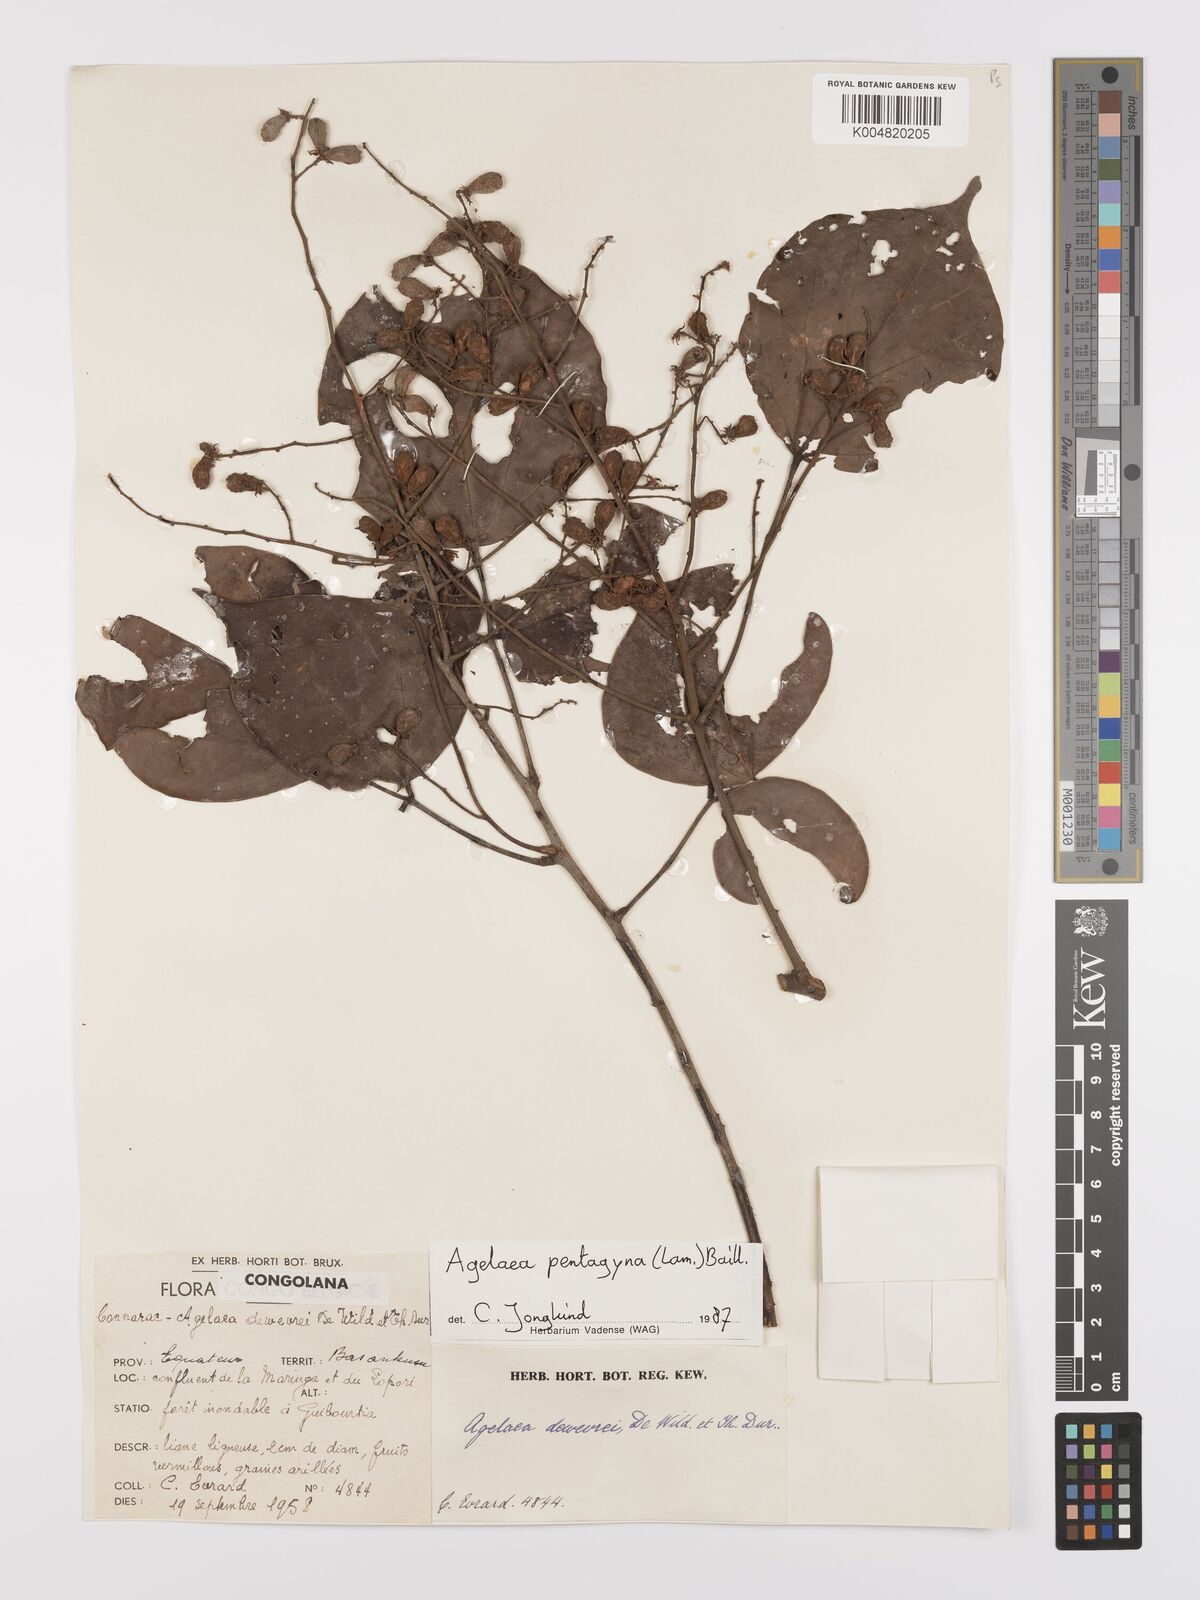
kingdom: Plantae
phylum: Tracheophyta
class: Magnoliopsida
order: Oxalidales
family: Connaraceae
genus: Agelaea
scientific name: Agelaea pentagyna
